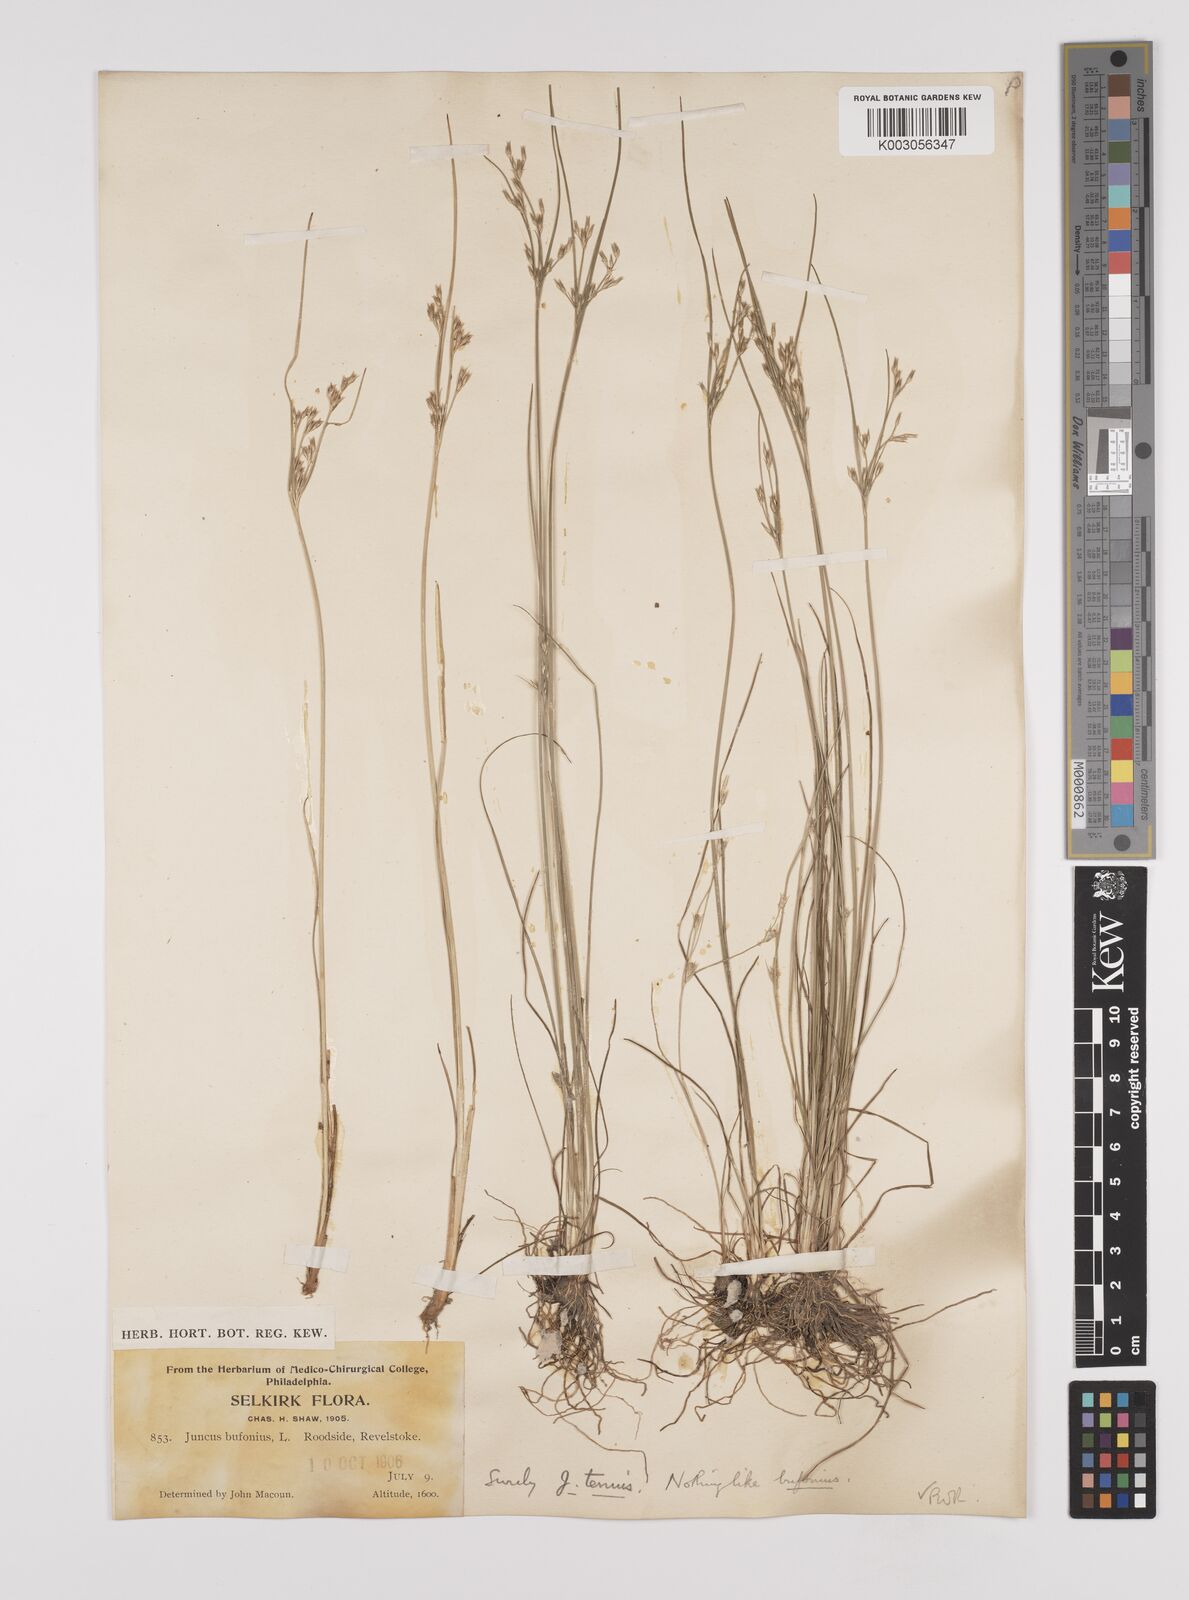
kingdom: Plantae
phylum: Tracheophyta
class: Liliopsida
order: Poales
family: Juncaceae
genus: Juncus
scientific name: Juncus tenuis
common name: Slender rush
